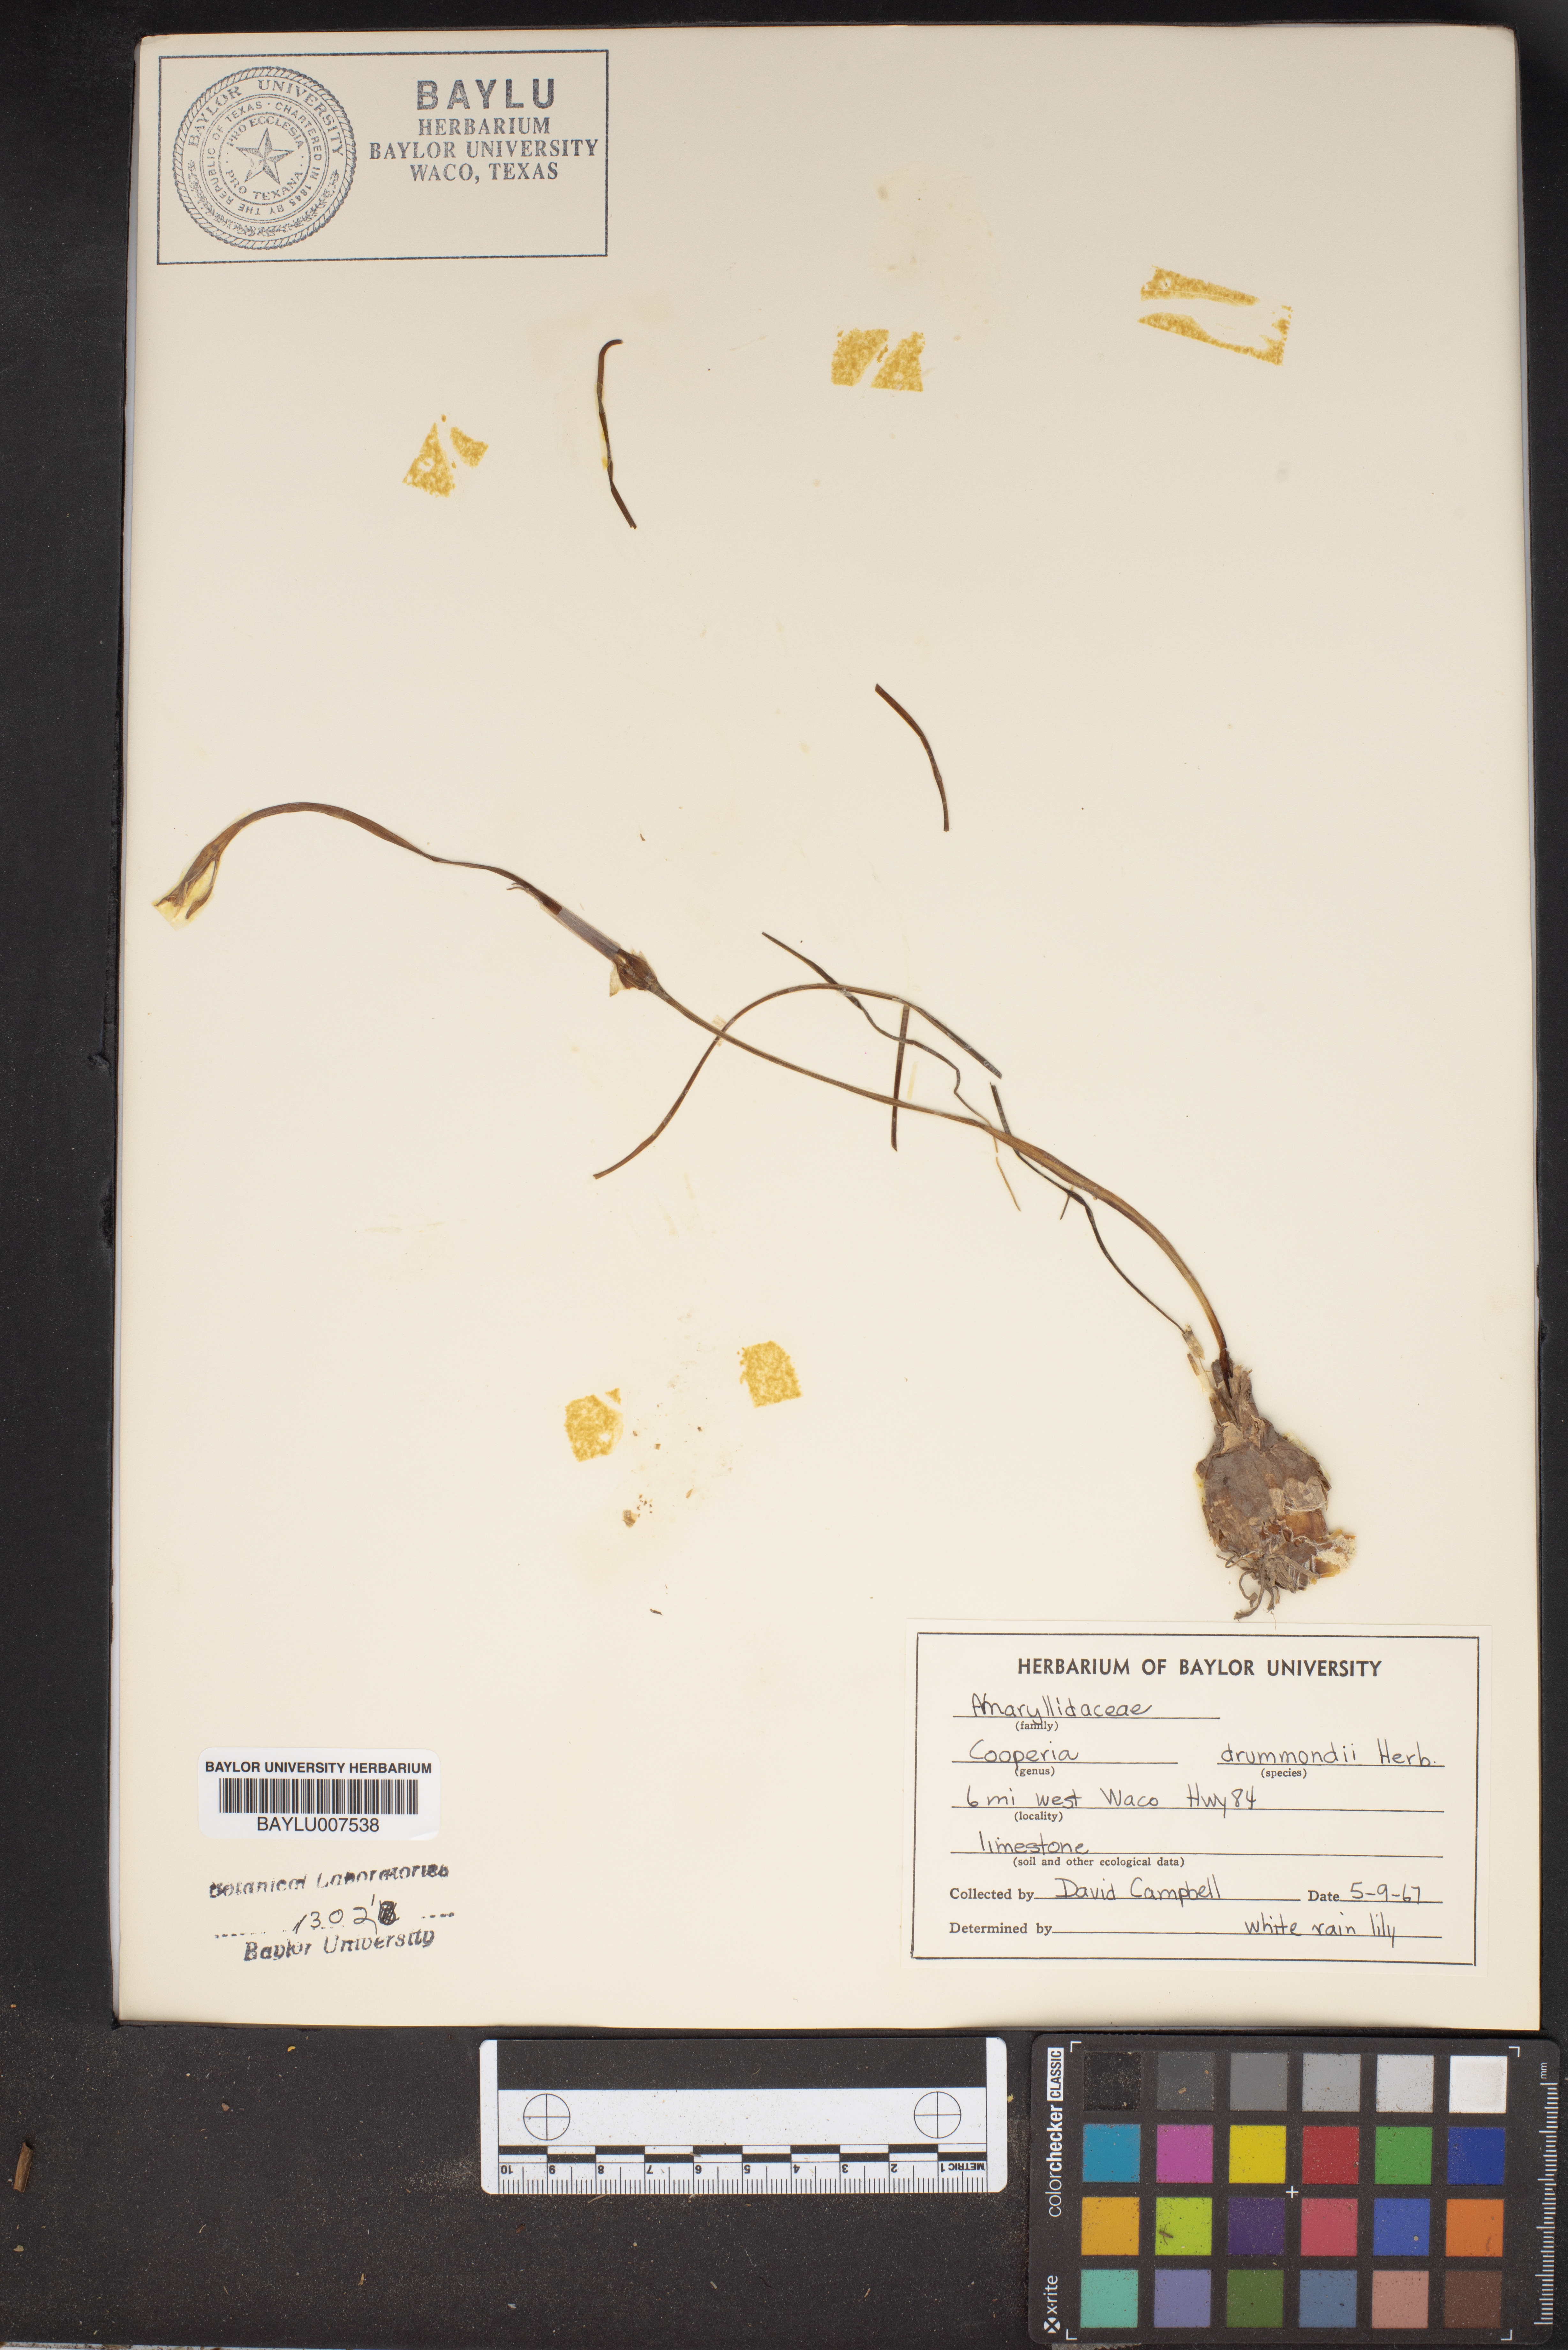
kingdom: Plantae
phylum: Tracheophyta
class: Liliopsida
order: Asparagales
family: Amaryllidaceae
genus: Zephyranthes
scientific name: Zephyranthes chlorosolen
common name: Evening rain-lily
